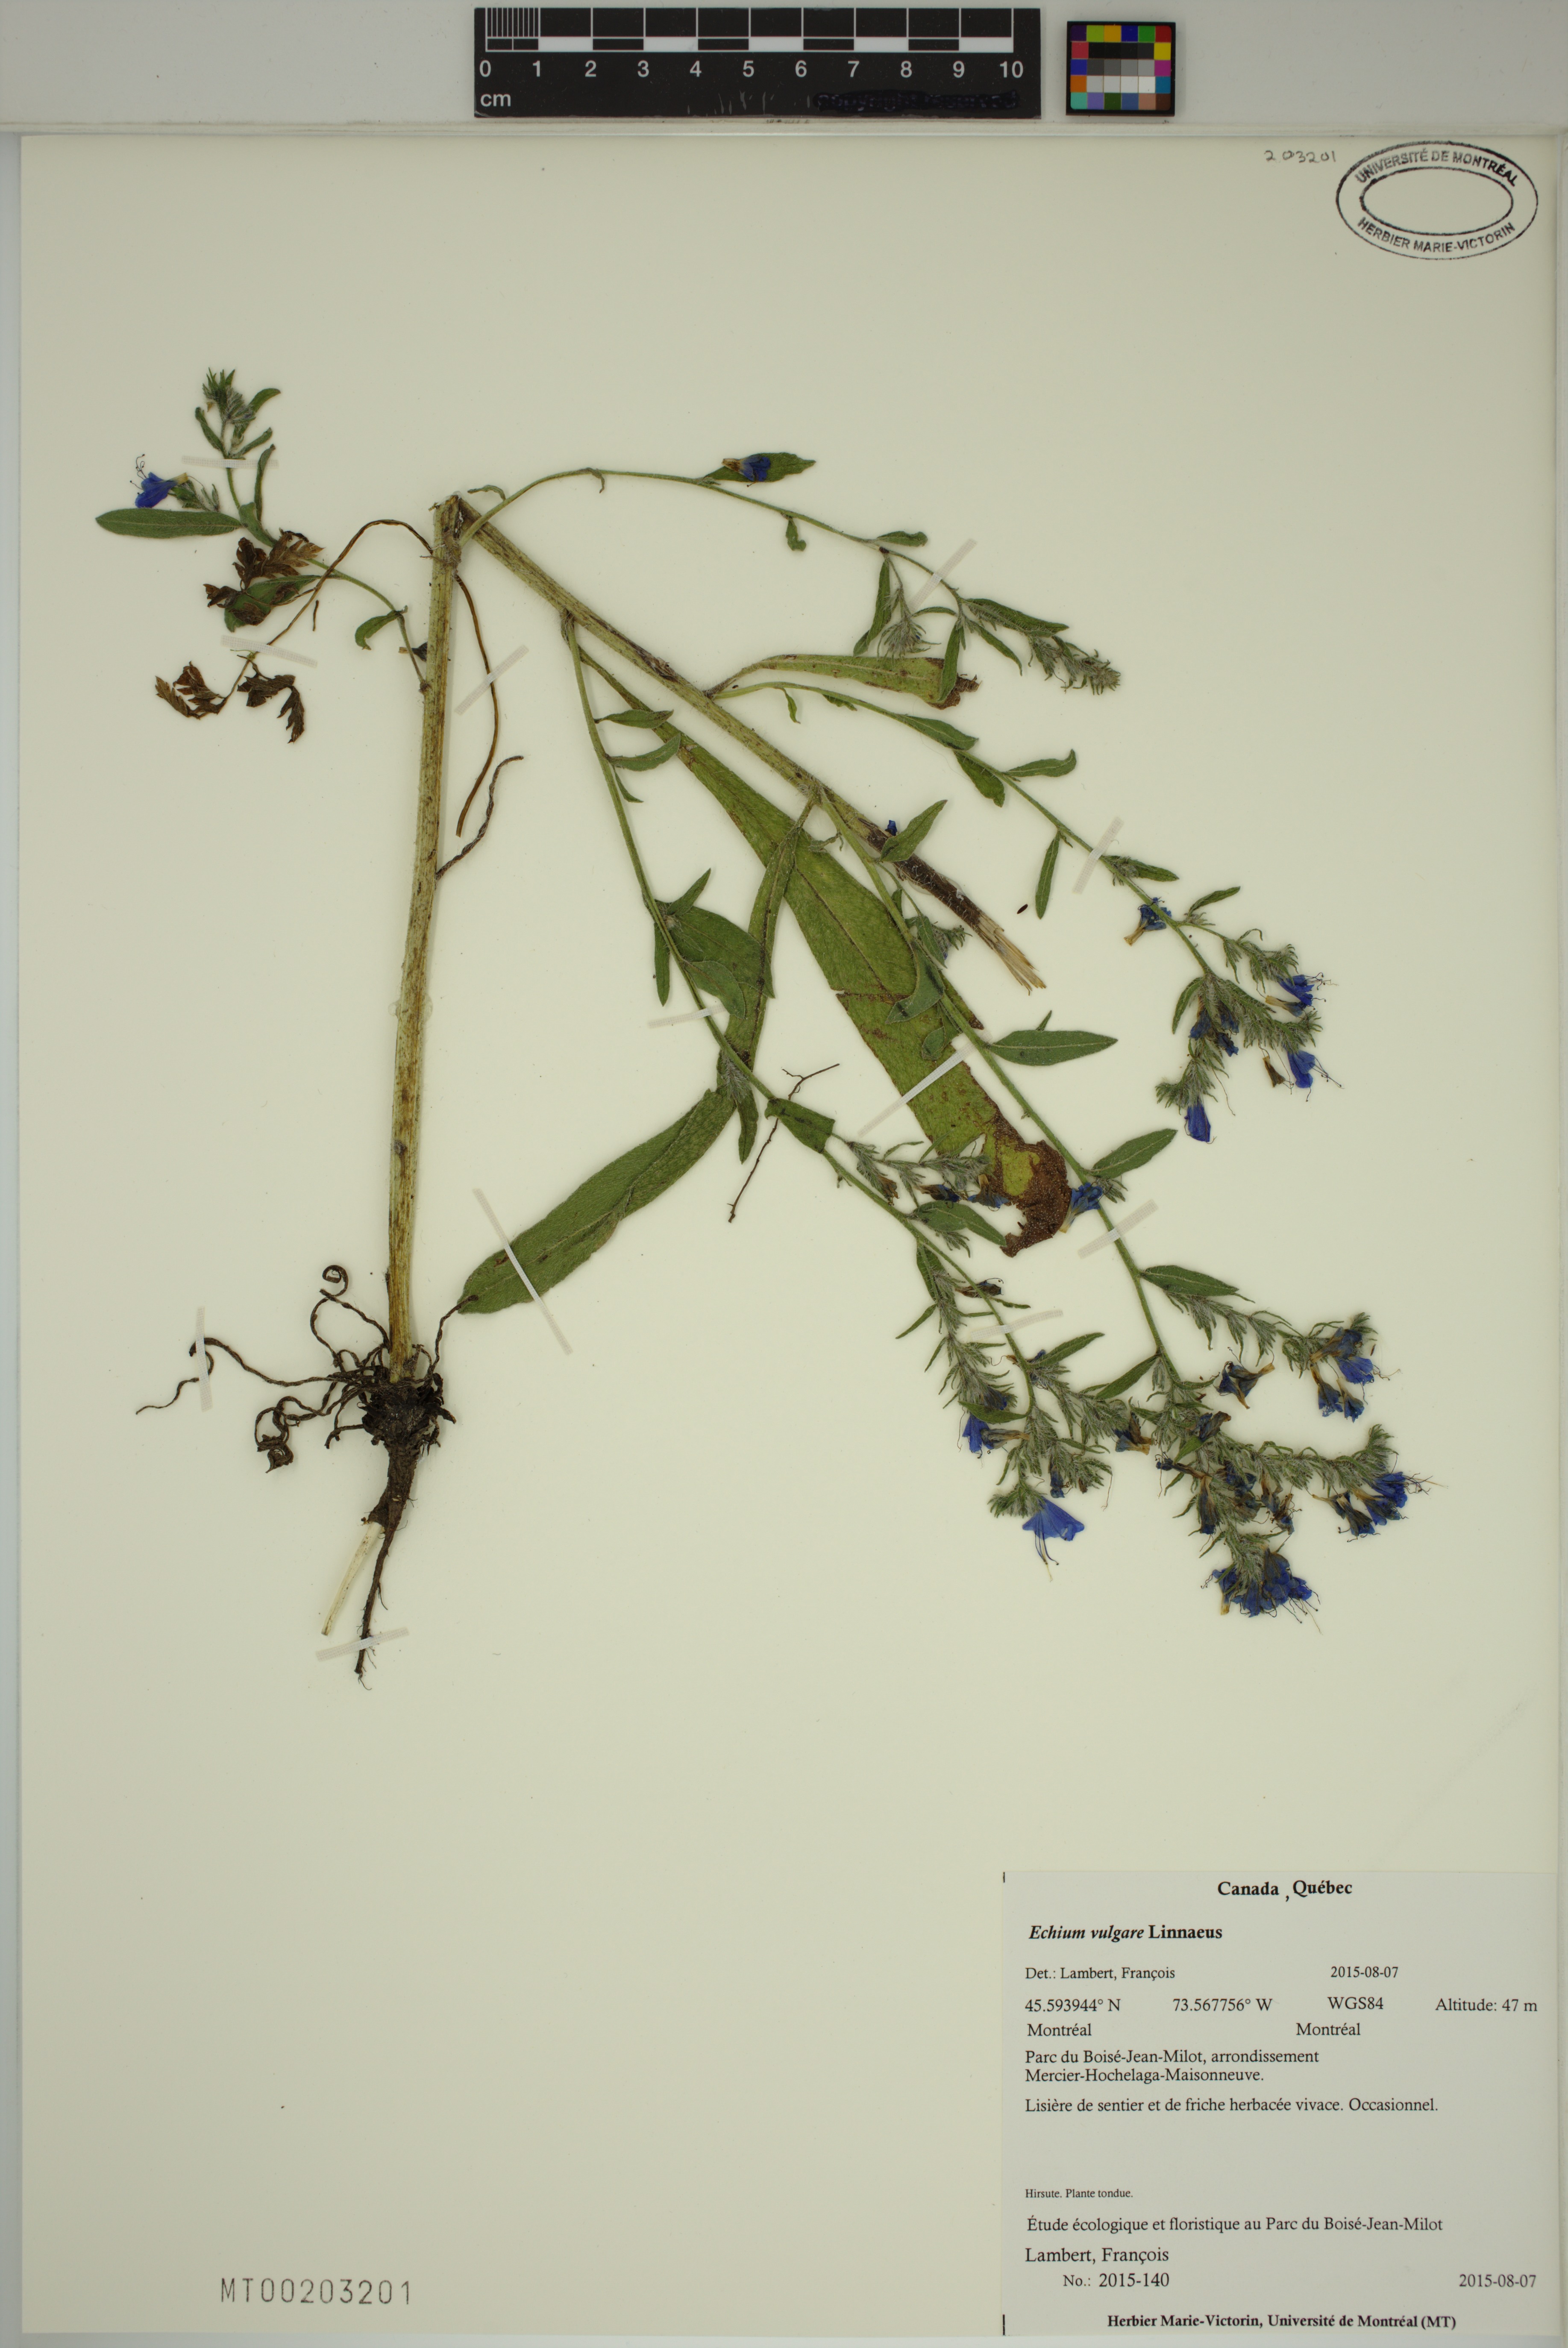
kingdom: Plantae
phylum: Tracheophyta
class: Magnoliopsida
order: Boraginales
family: Boraginaceae
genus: Echium
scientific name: Echium vulgare
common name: Common viper's bugloss
